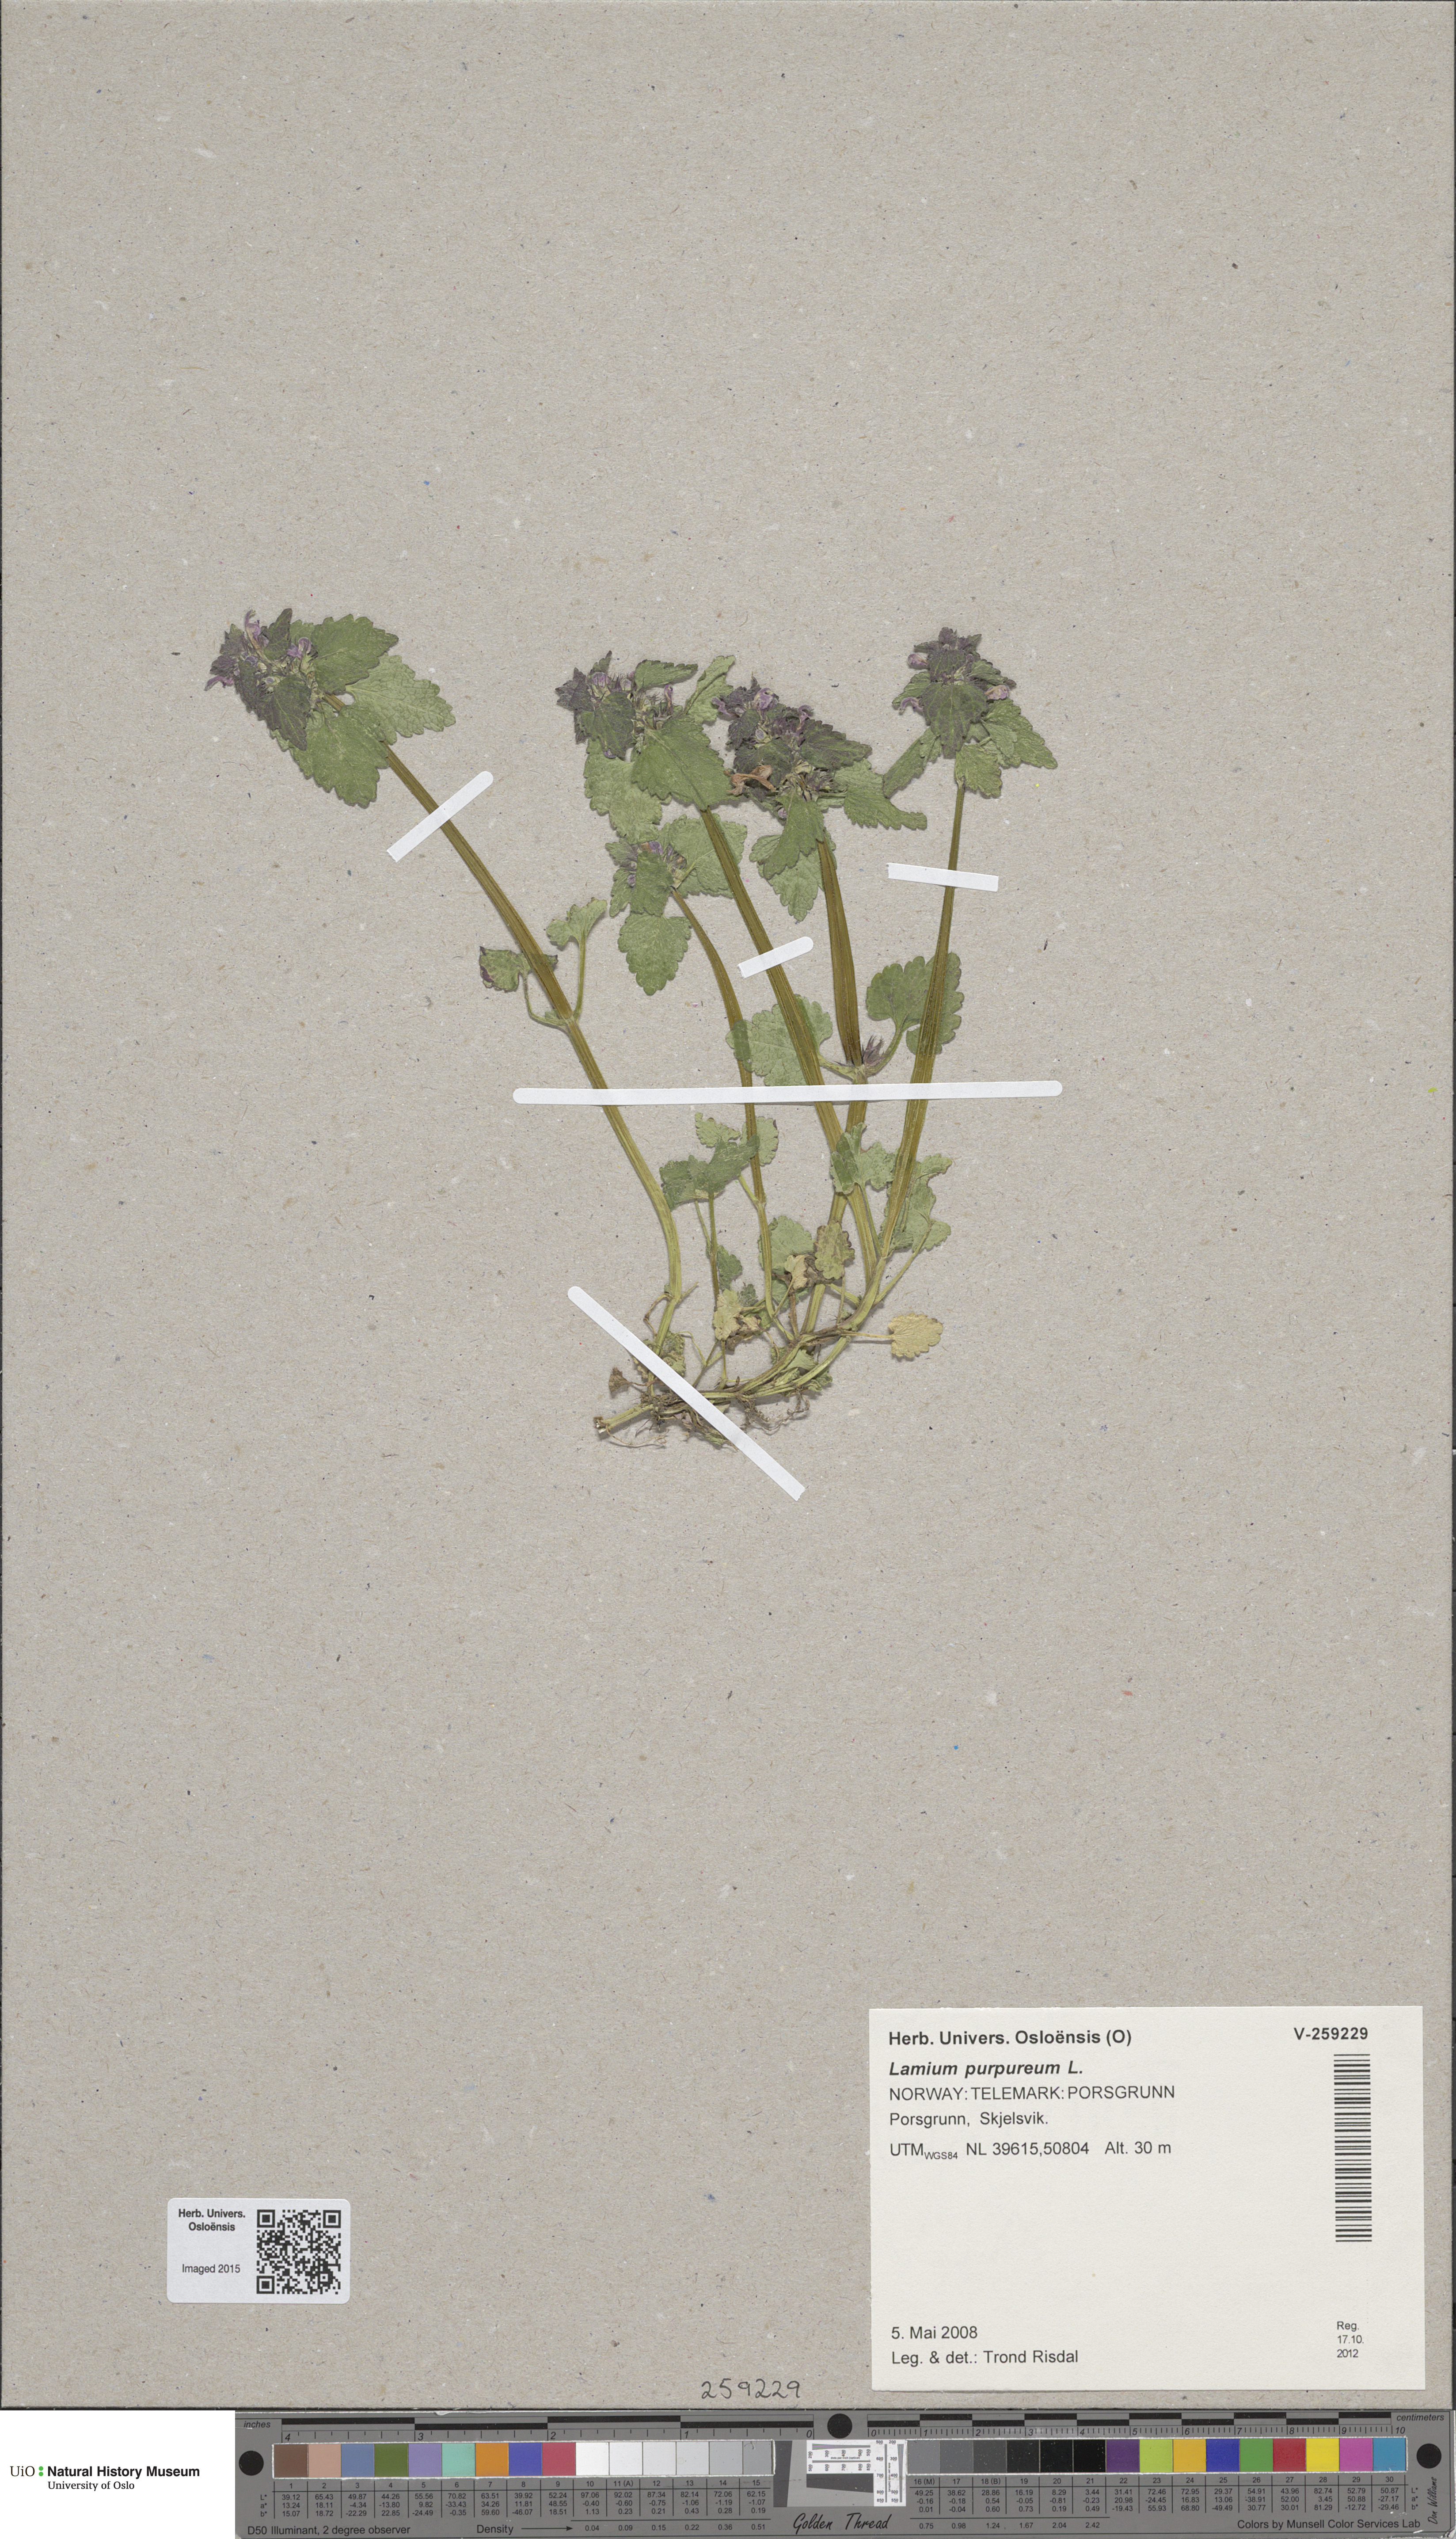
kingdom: Plantae
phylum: Tracheophyta
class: Magnoliopsida
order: Lamiales
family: Lamiaceae
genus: Lamium
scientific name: Lamium purpureum
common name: Red dead-nettle
